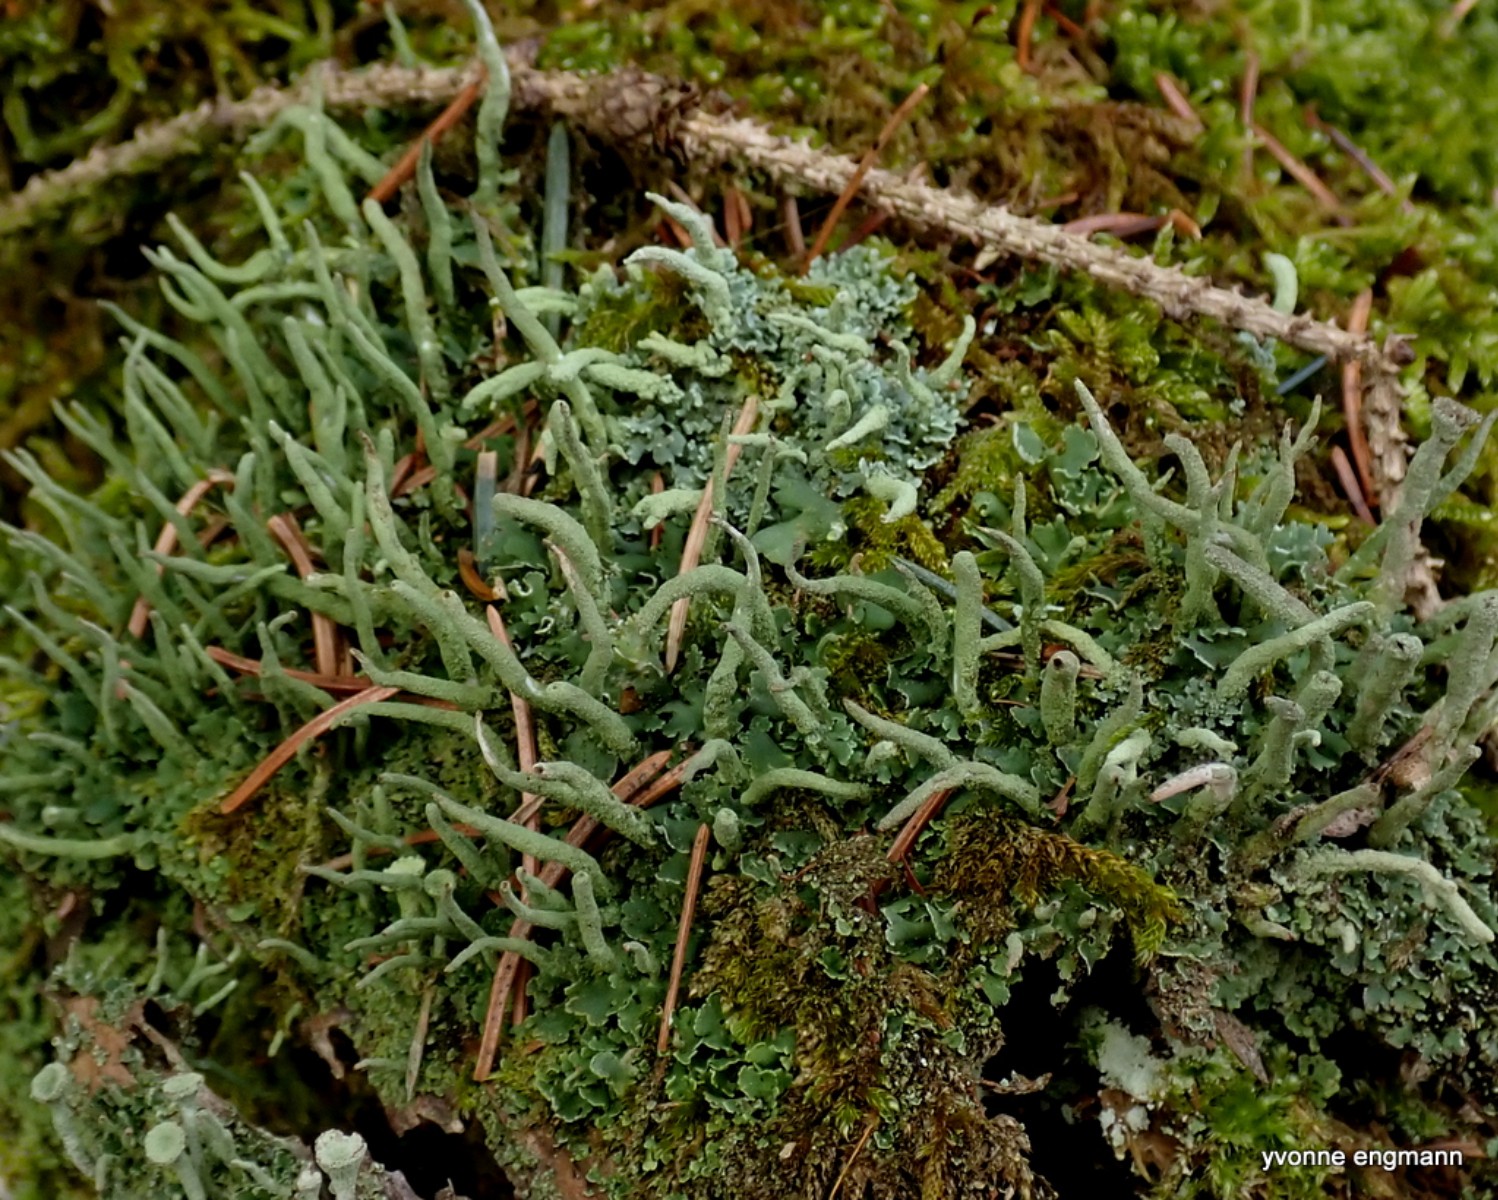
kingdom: Fungi
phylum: Ascomycota
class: Lecanoromycetes
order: Lecanorales
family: Cladoniaceae
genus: Cladonia
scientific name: Cladonia ochrochlora
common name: stød-bægerlav
